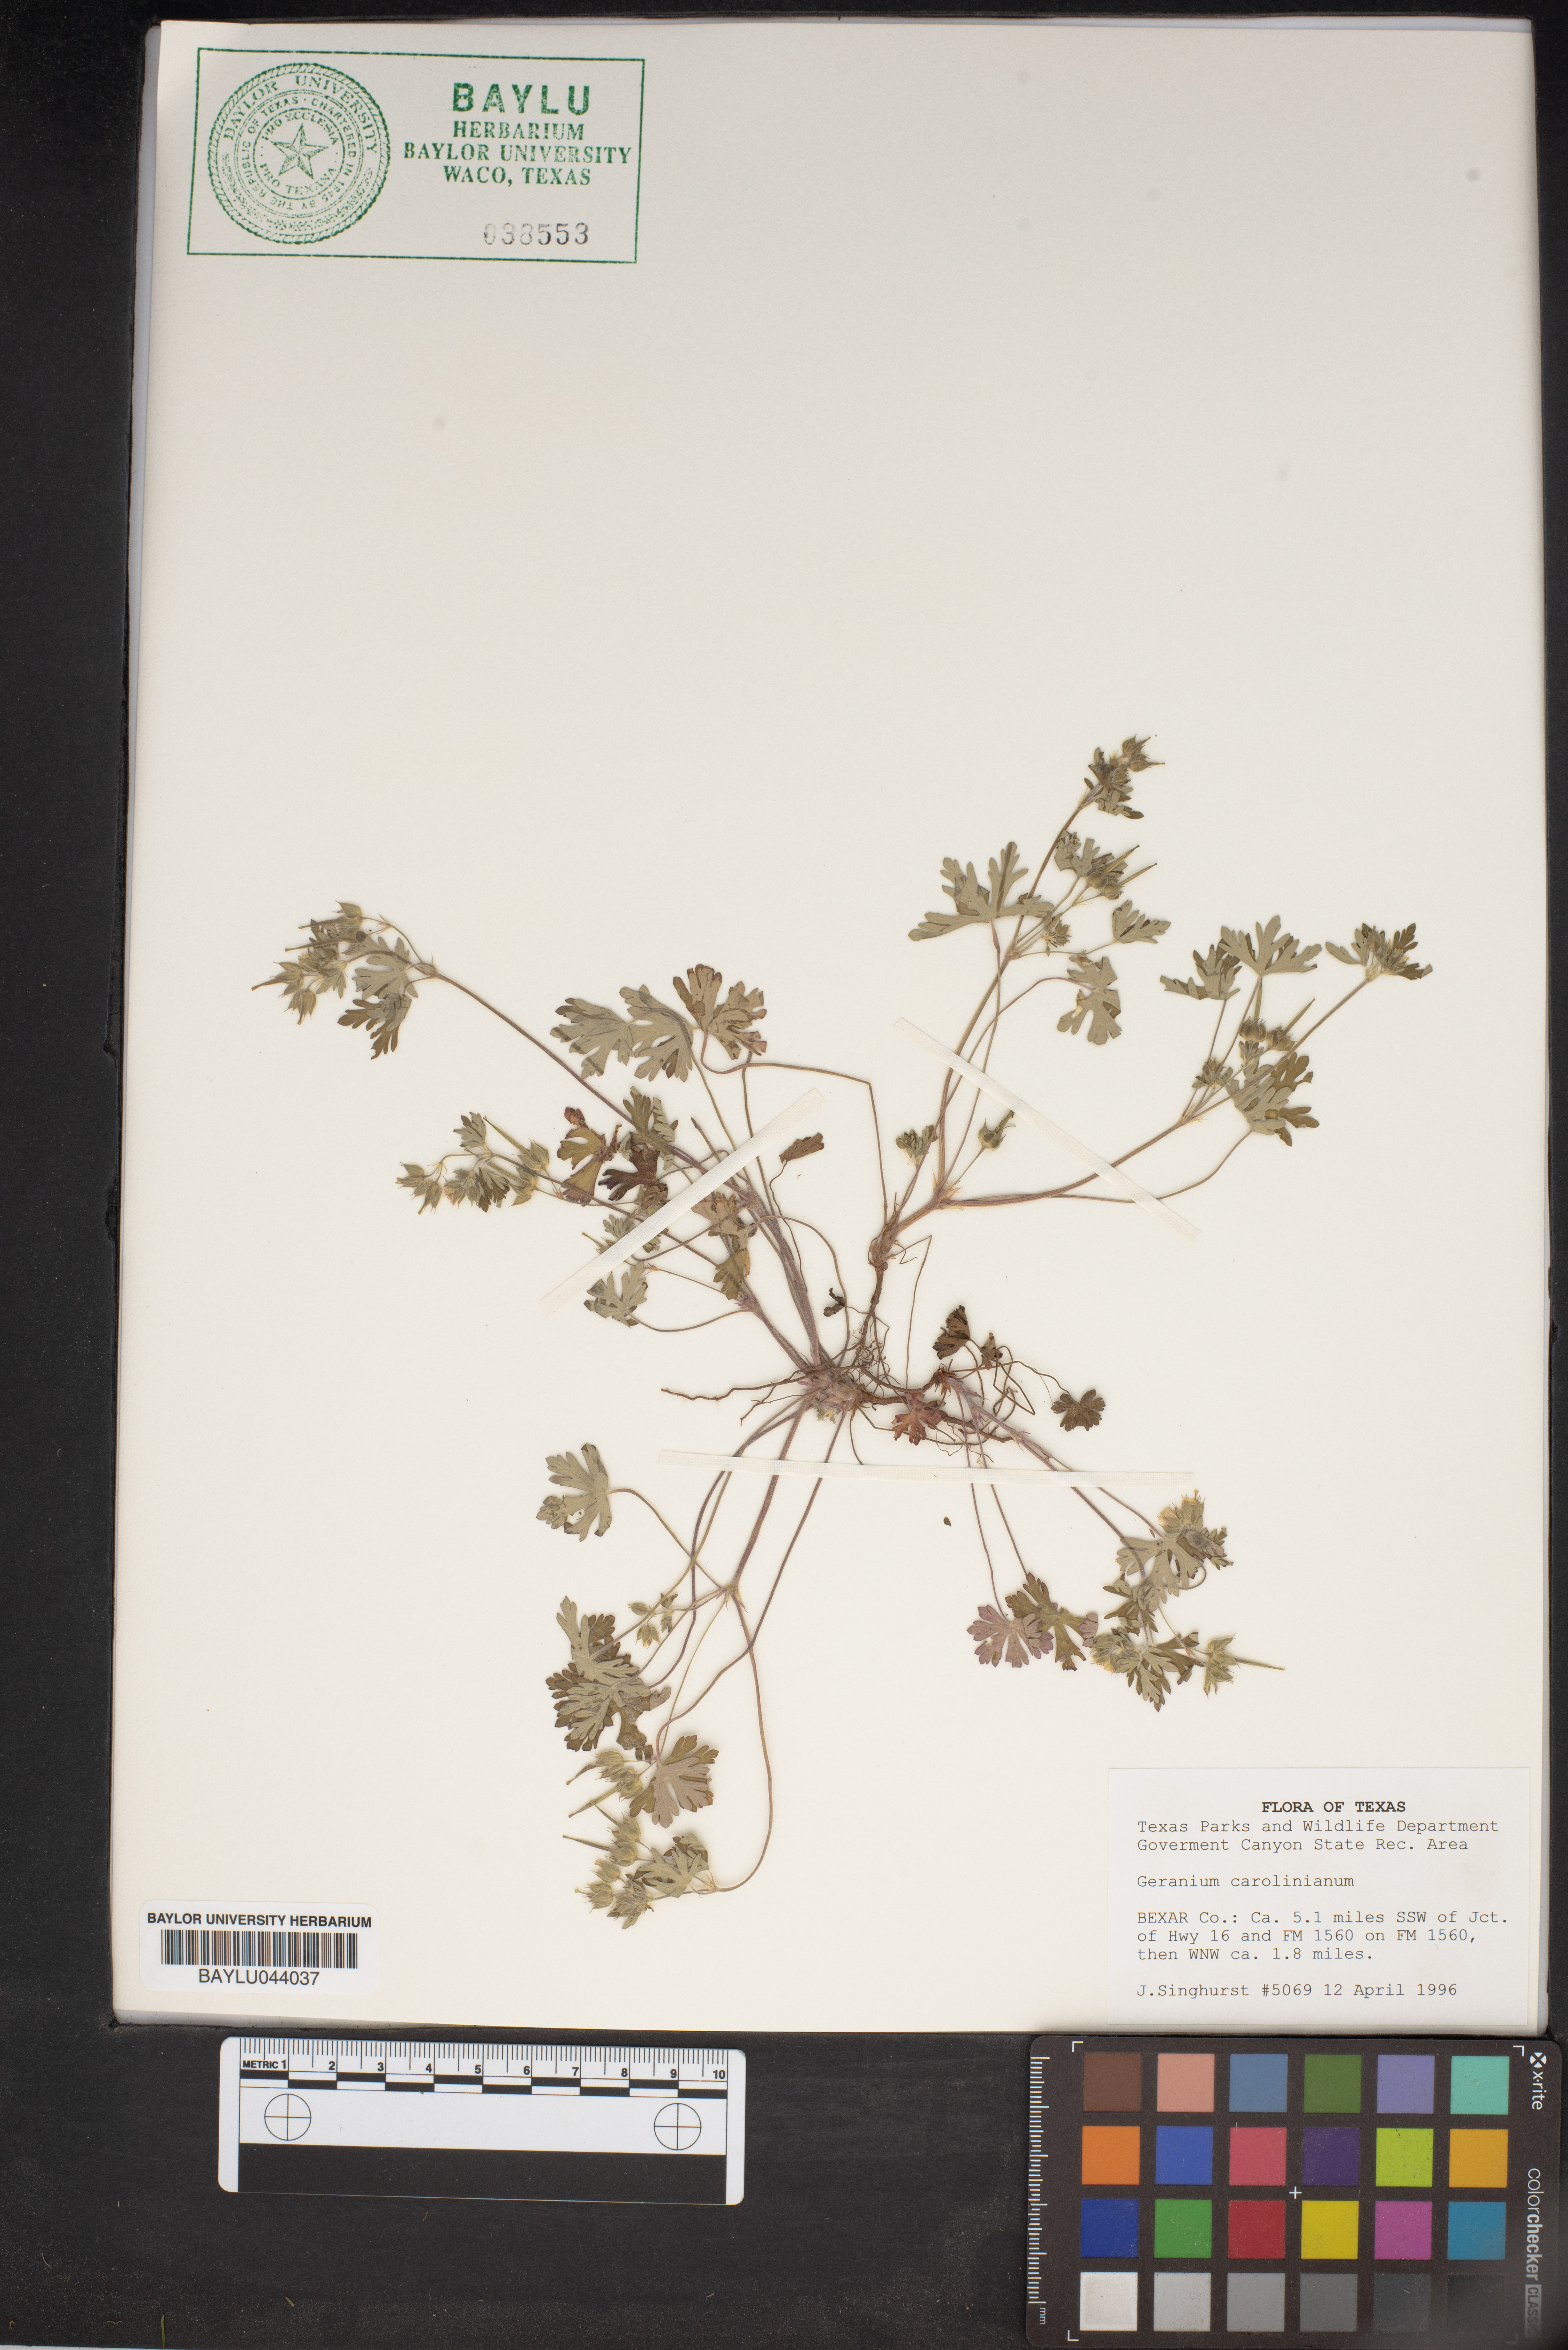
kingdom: Plantae
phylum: Tracheophyta
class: Magnoliopsida
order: Geraniales
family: Geraniaceae
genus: Geranium
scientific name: Geranium carolinianum
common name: Carolina crane's-bill
